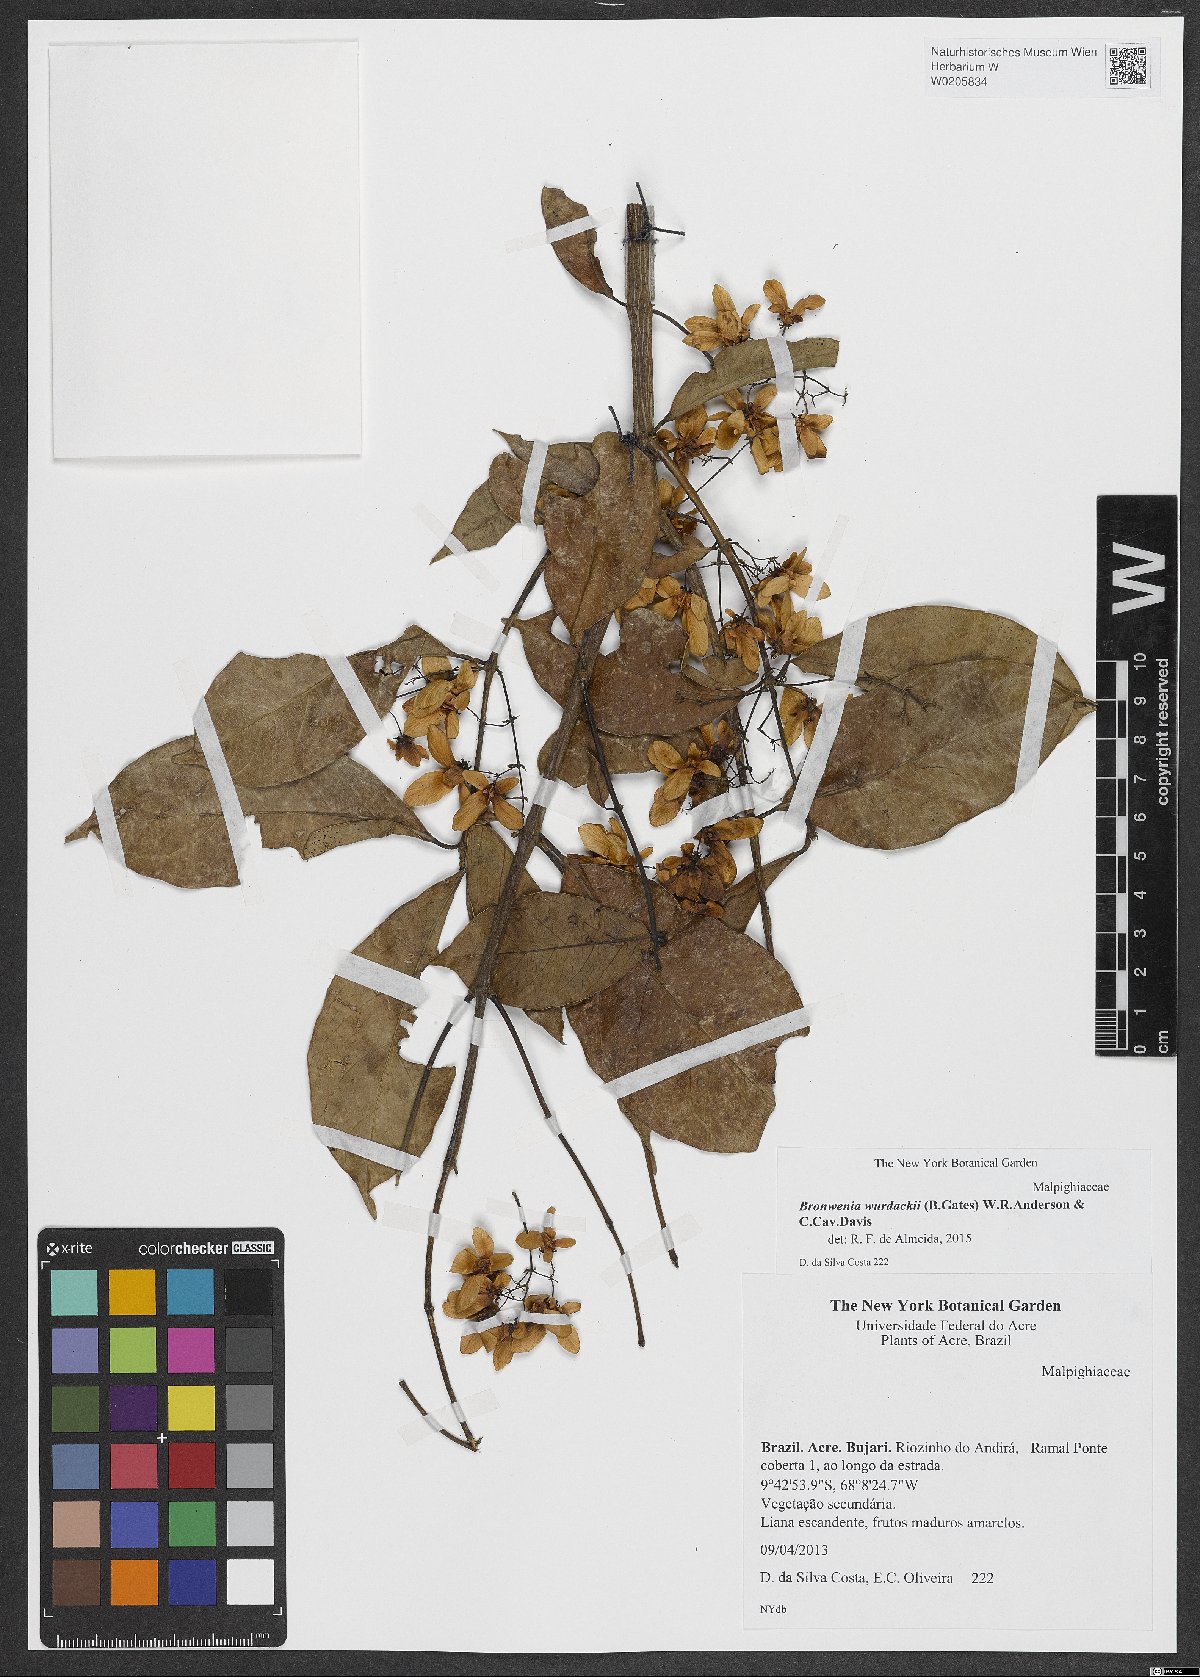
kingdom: Plantae
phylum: Tracheophyta
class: Magnoliopsida
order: Malpighiales
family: Malpighiaceae
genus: Bronwenia
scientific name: Bronwenia wurdackii
